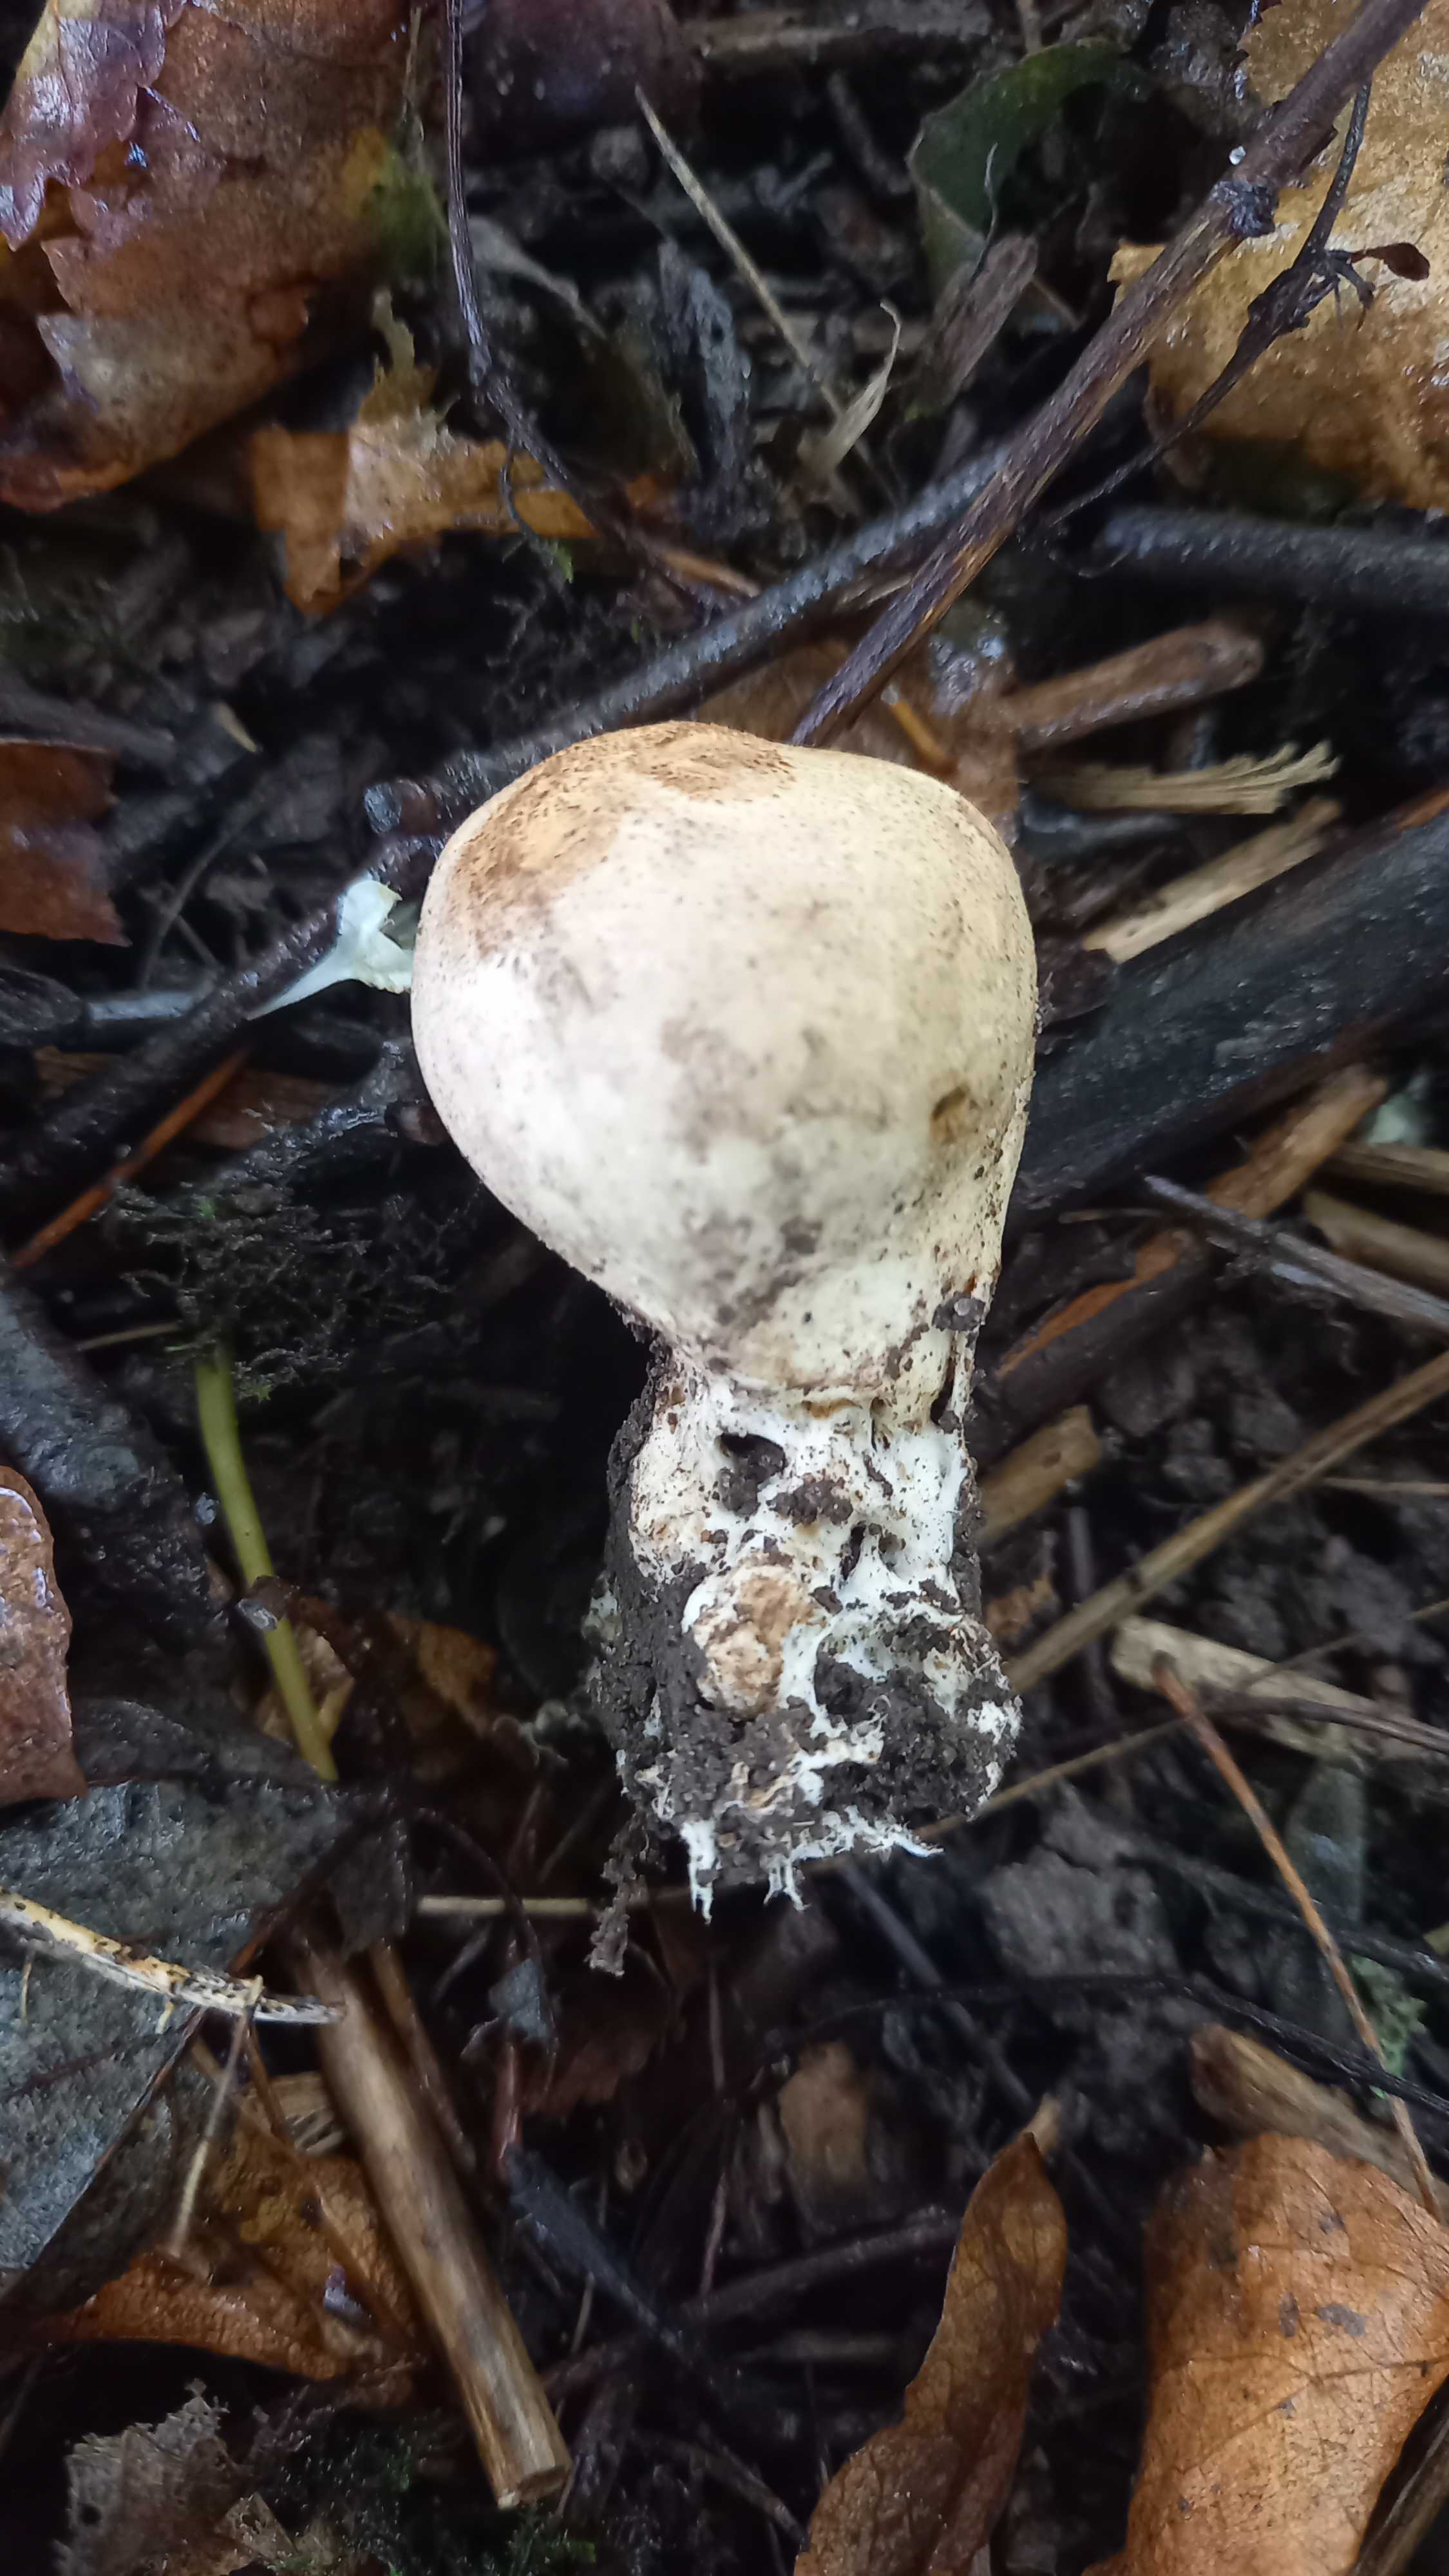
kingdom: Fungi
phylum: Basidiomycota
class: Agaricomycetes
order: Boletales
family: Sclerodermataceae
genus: Scleroderma
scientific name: Scleroderma
